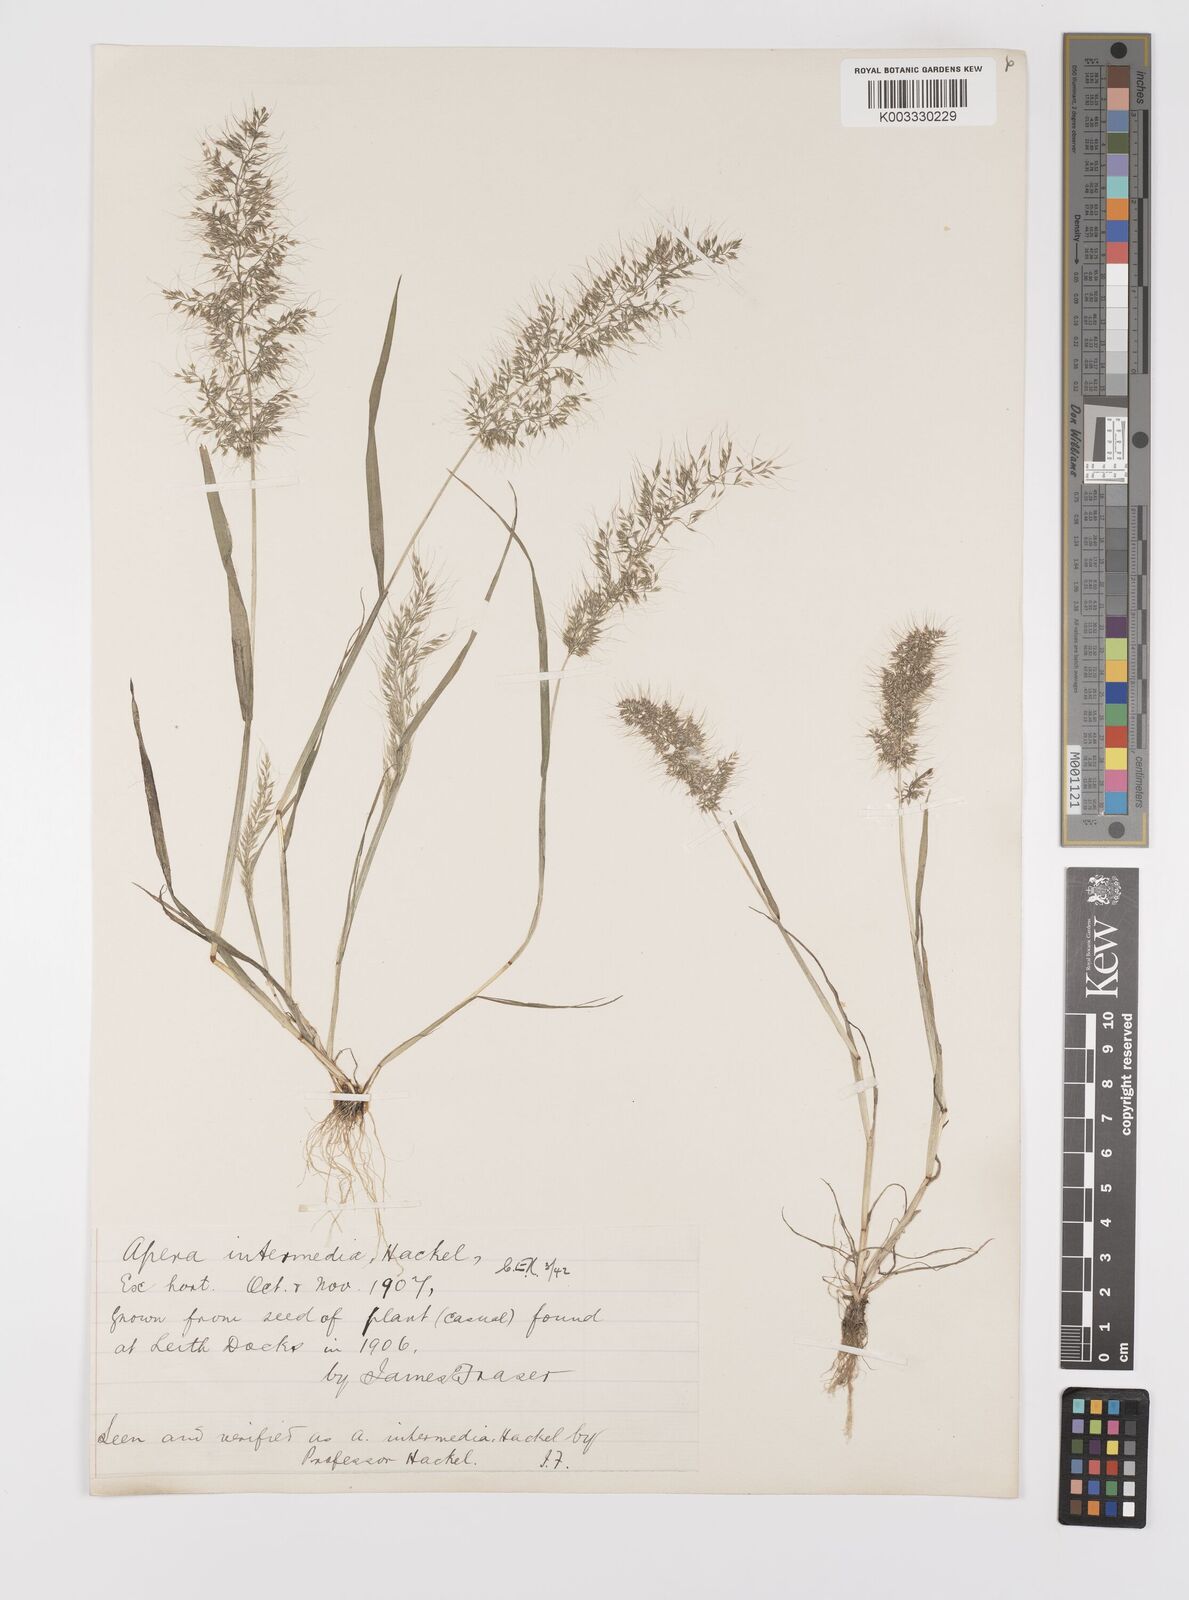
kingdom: Plantae
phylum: Tracheophyta
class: Liliopsida
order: Poales
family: Poaceae
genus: Apera
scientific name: Apera intermedia
